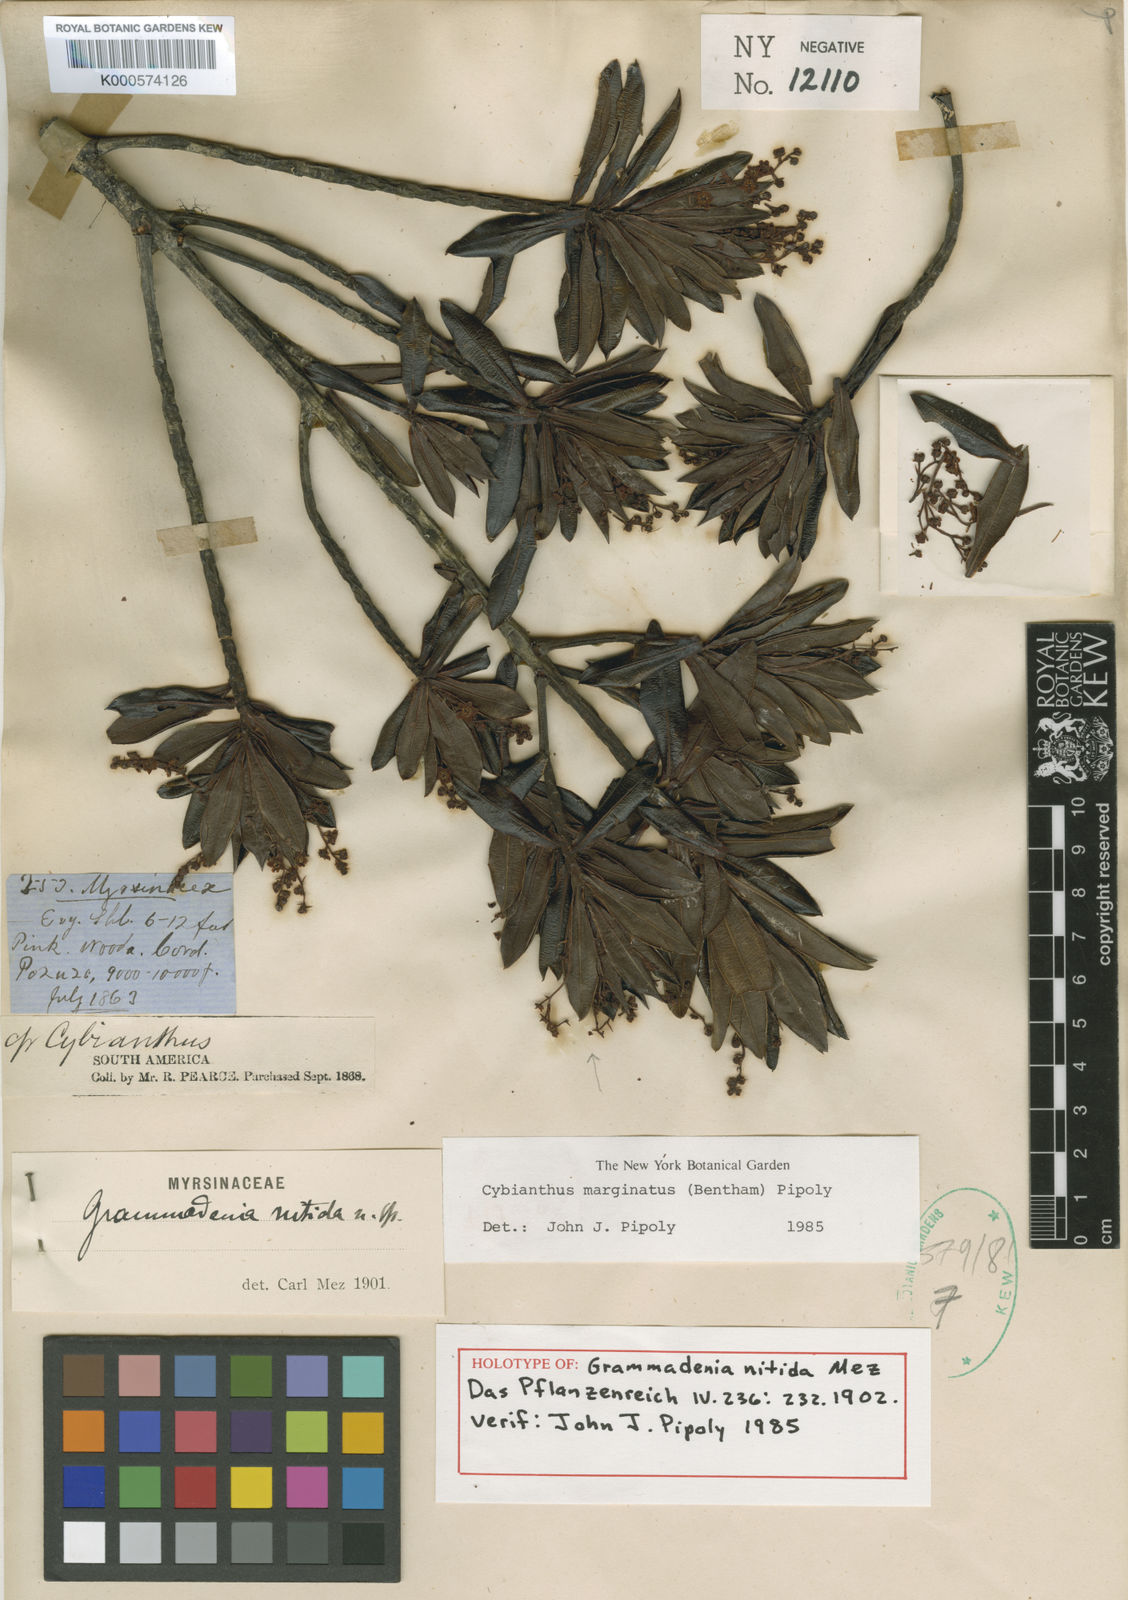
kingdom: Plantae
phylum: Tracheophyta
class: Magnoliopsida
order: Ericales
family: Primulaceae
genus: Cybianthus
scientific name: Cybianthus marginatus
